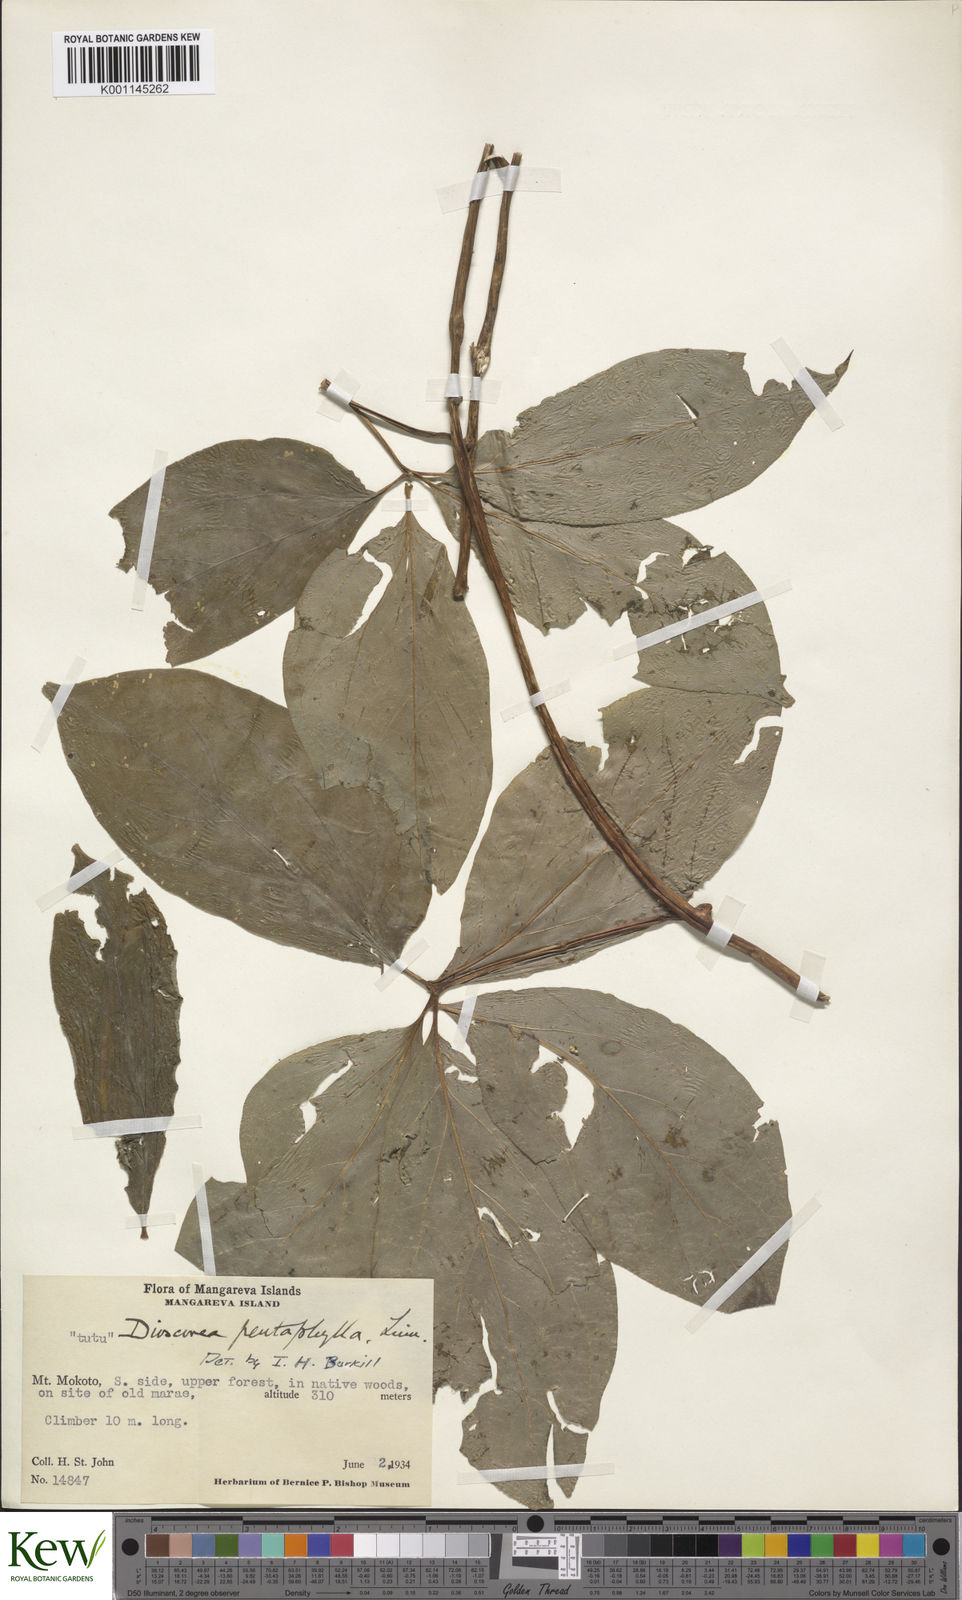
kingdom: Plantae
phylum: Tracheophyta
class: Liliopsida
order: Dioscoreales
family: Dioscoreaceae
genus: Dioscorea
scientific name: Dioscorea pentaphylla
